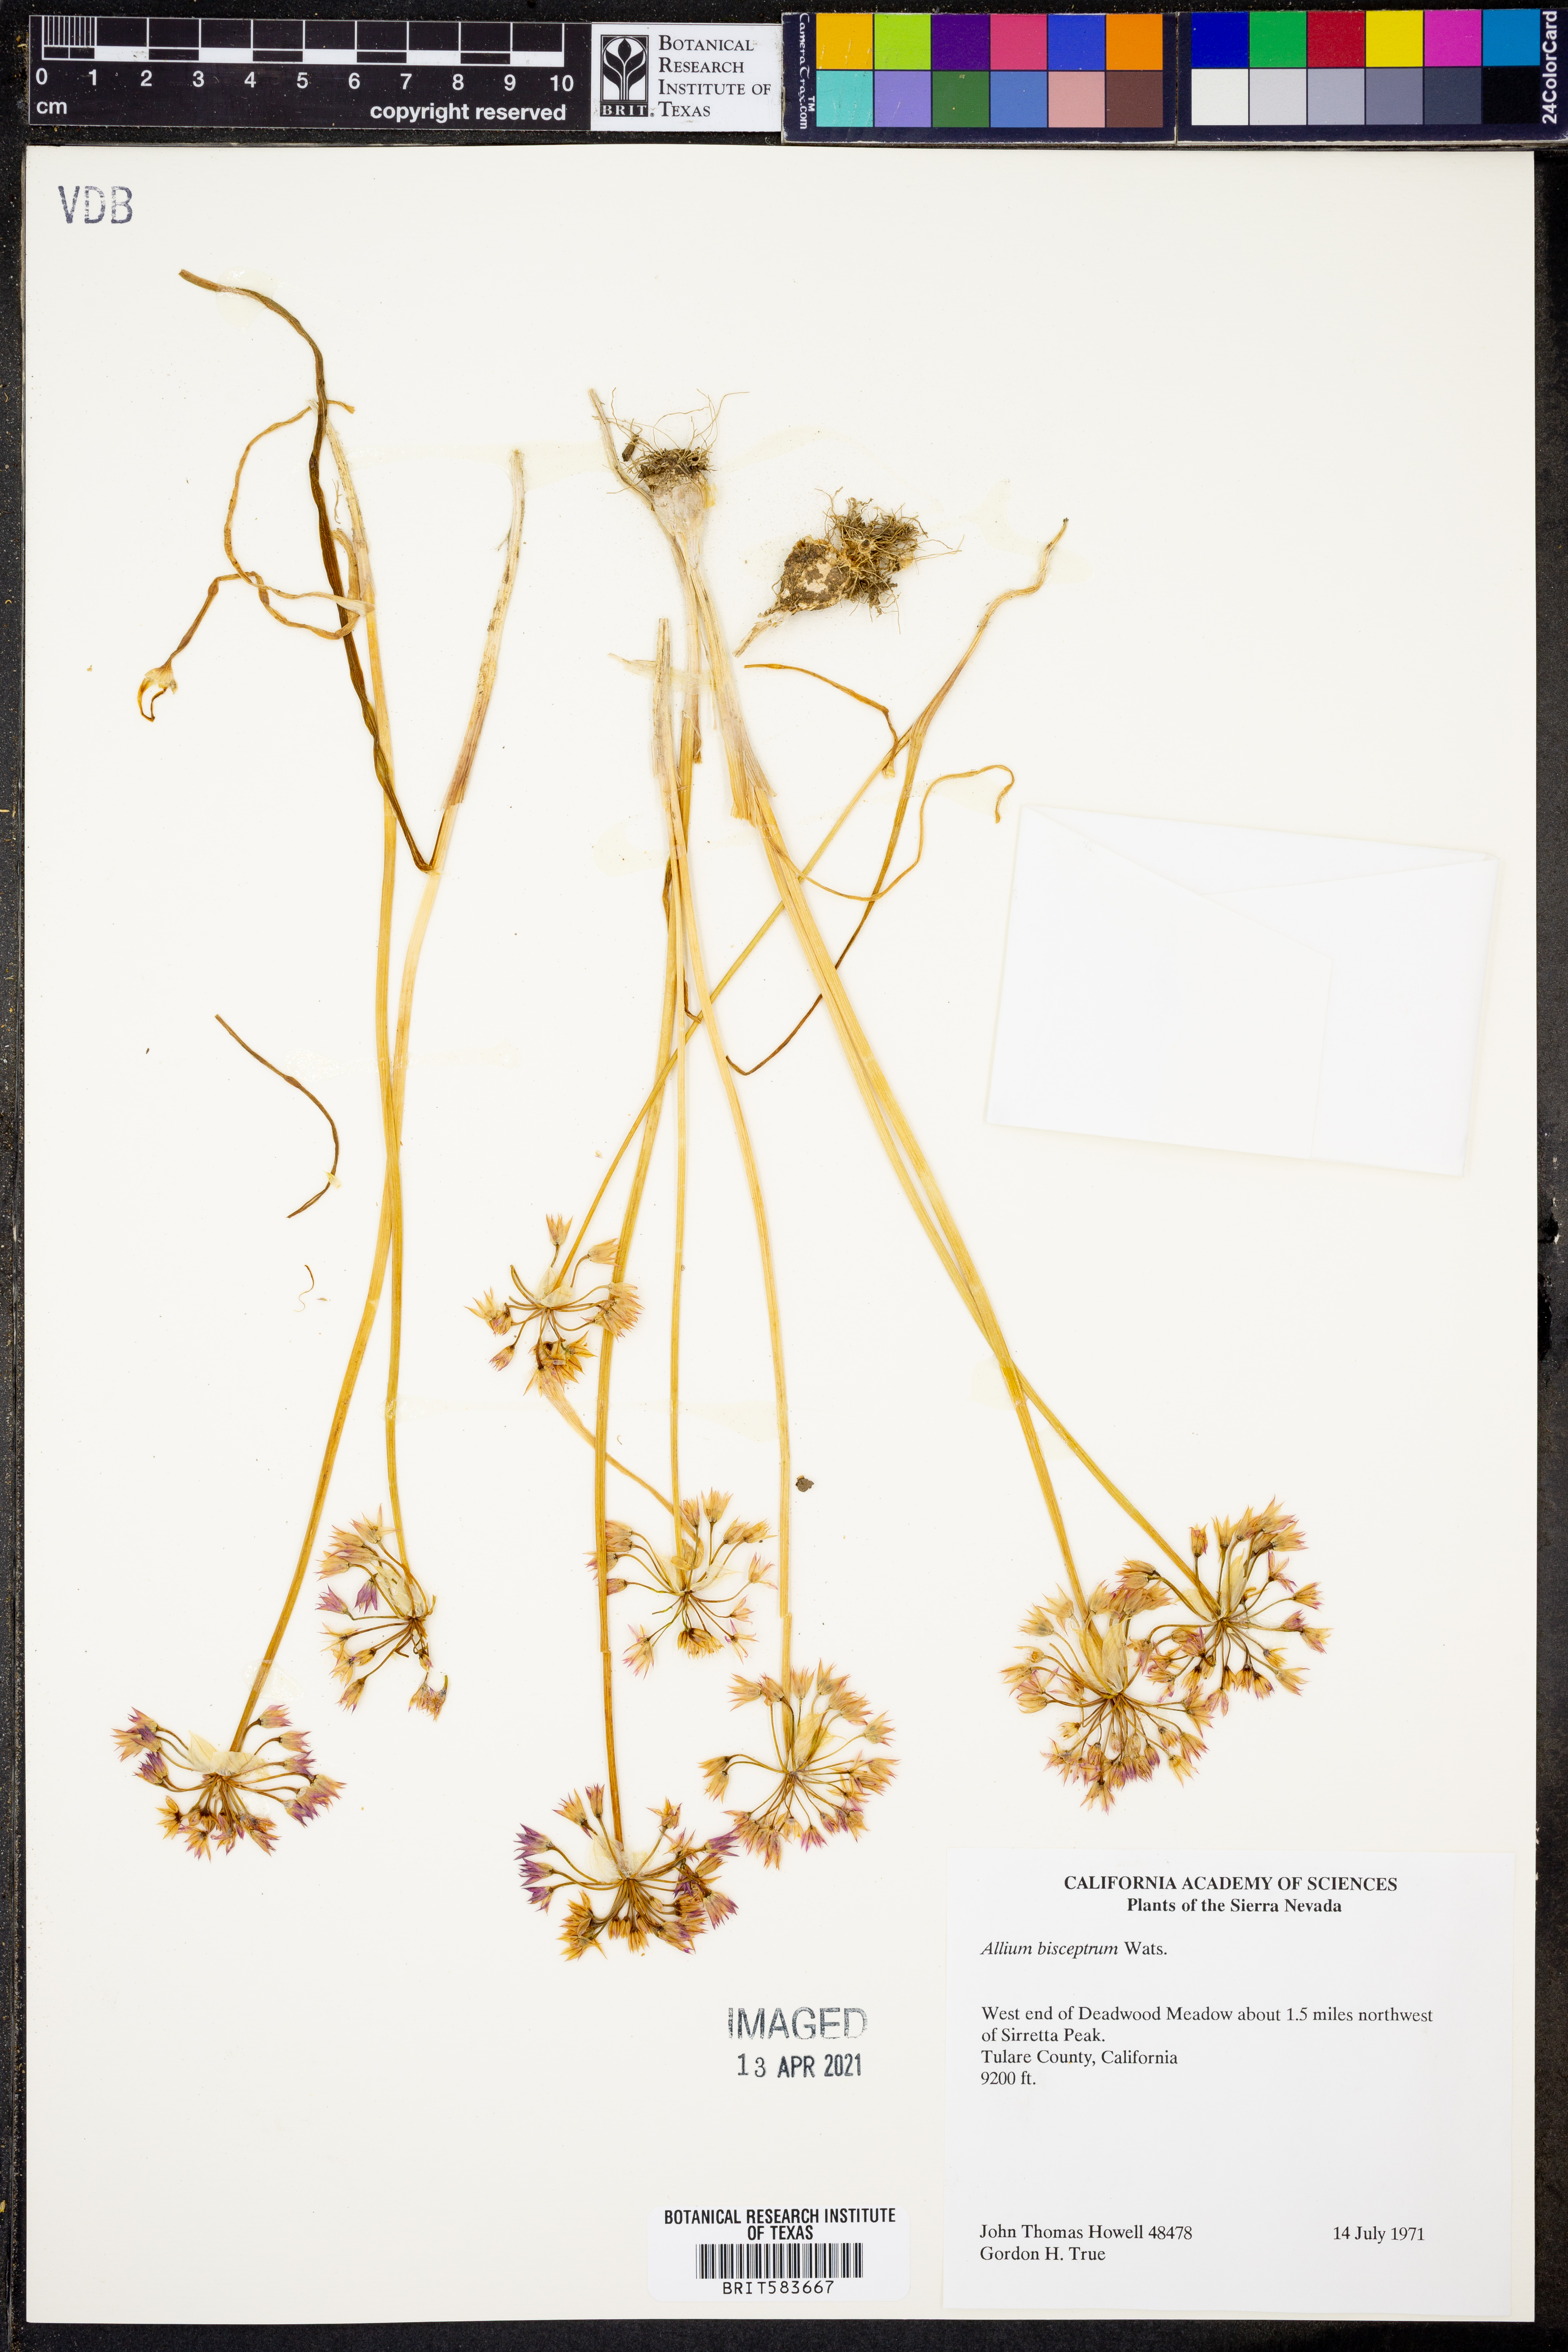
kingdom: Plantae
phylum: Tracheophyta
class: Liliopsida
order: Asparagales
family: Amaryllidaceae
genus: Allium
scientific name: Allium bisceptrum
